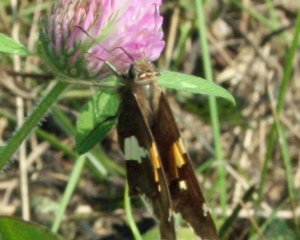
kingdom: Animalia
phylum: Arthropoda
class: Insecta
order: Lepidoptera
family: Hesperiidae
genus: Epargyreus
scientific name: Epargyreus clarus
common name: Silver-spotted Skipper
